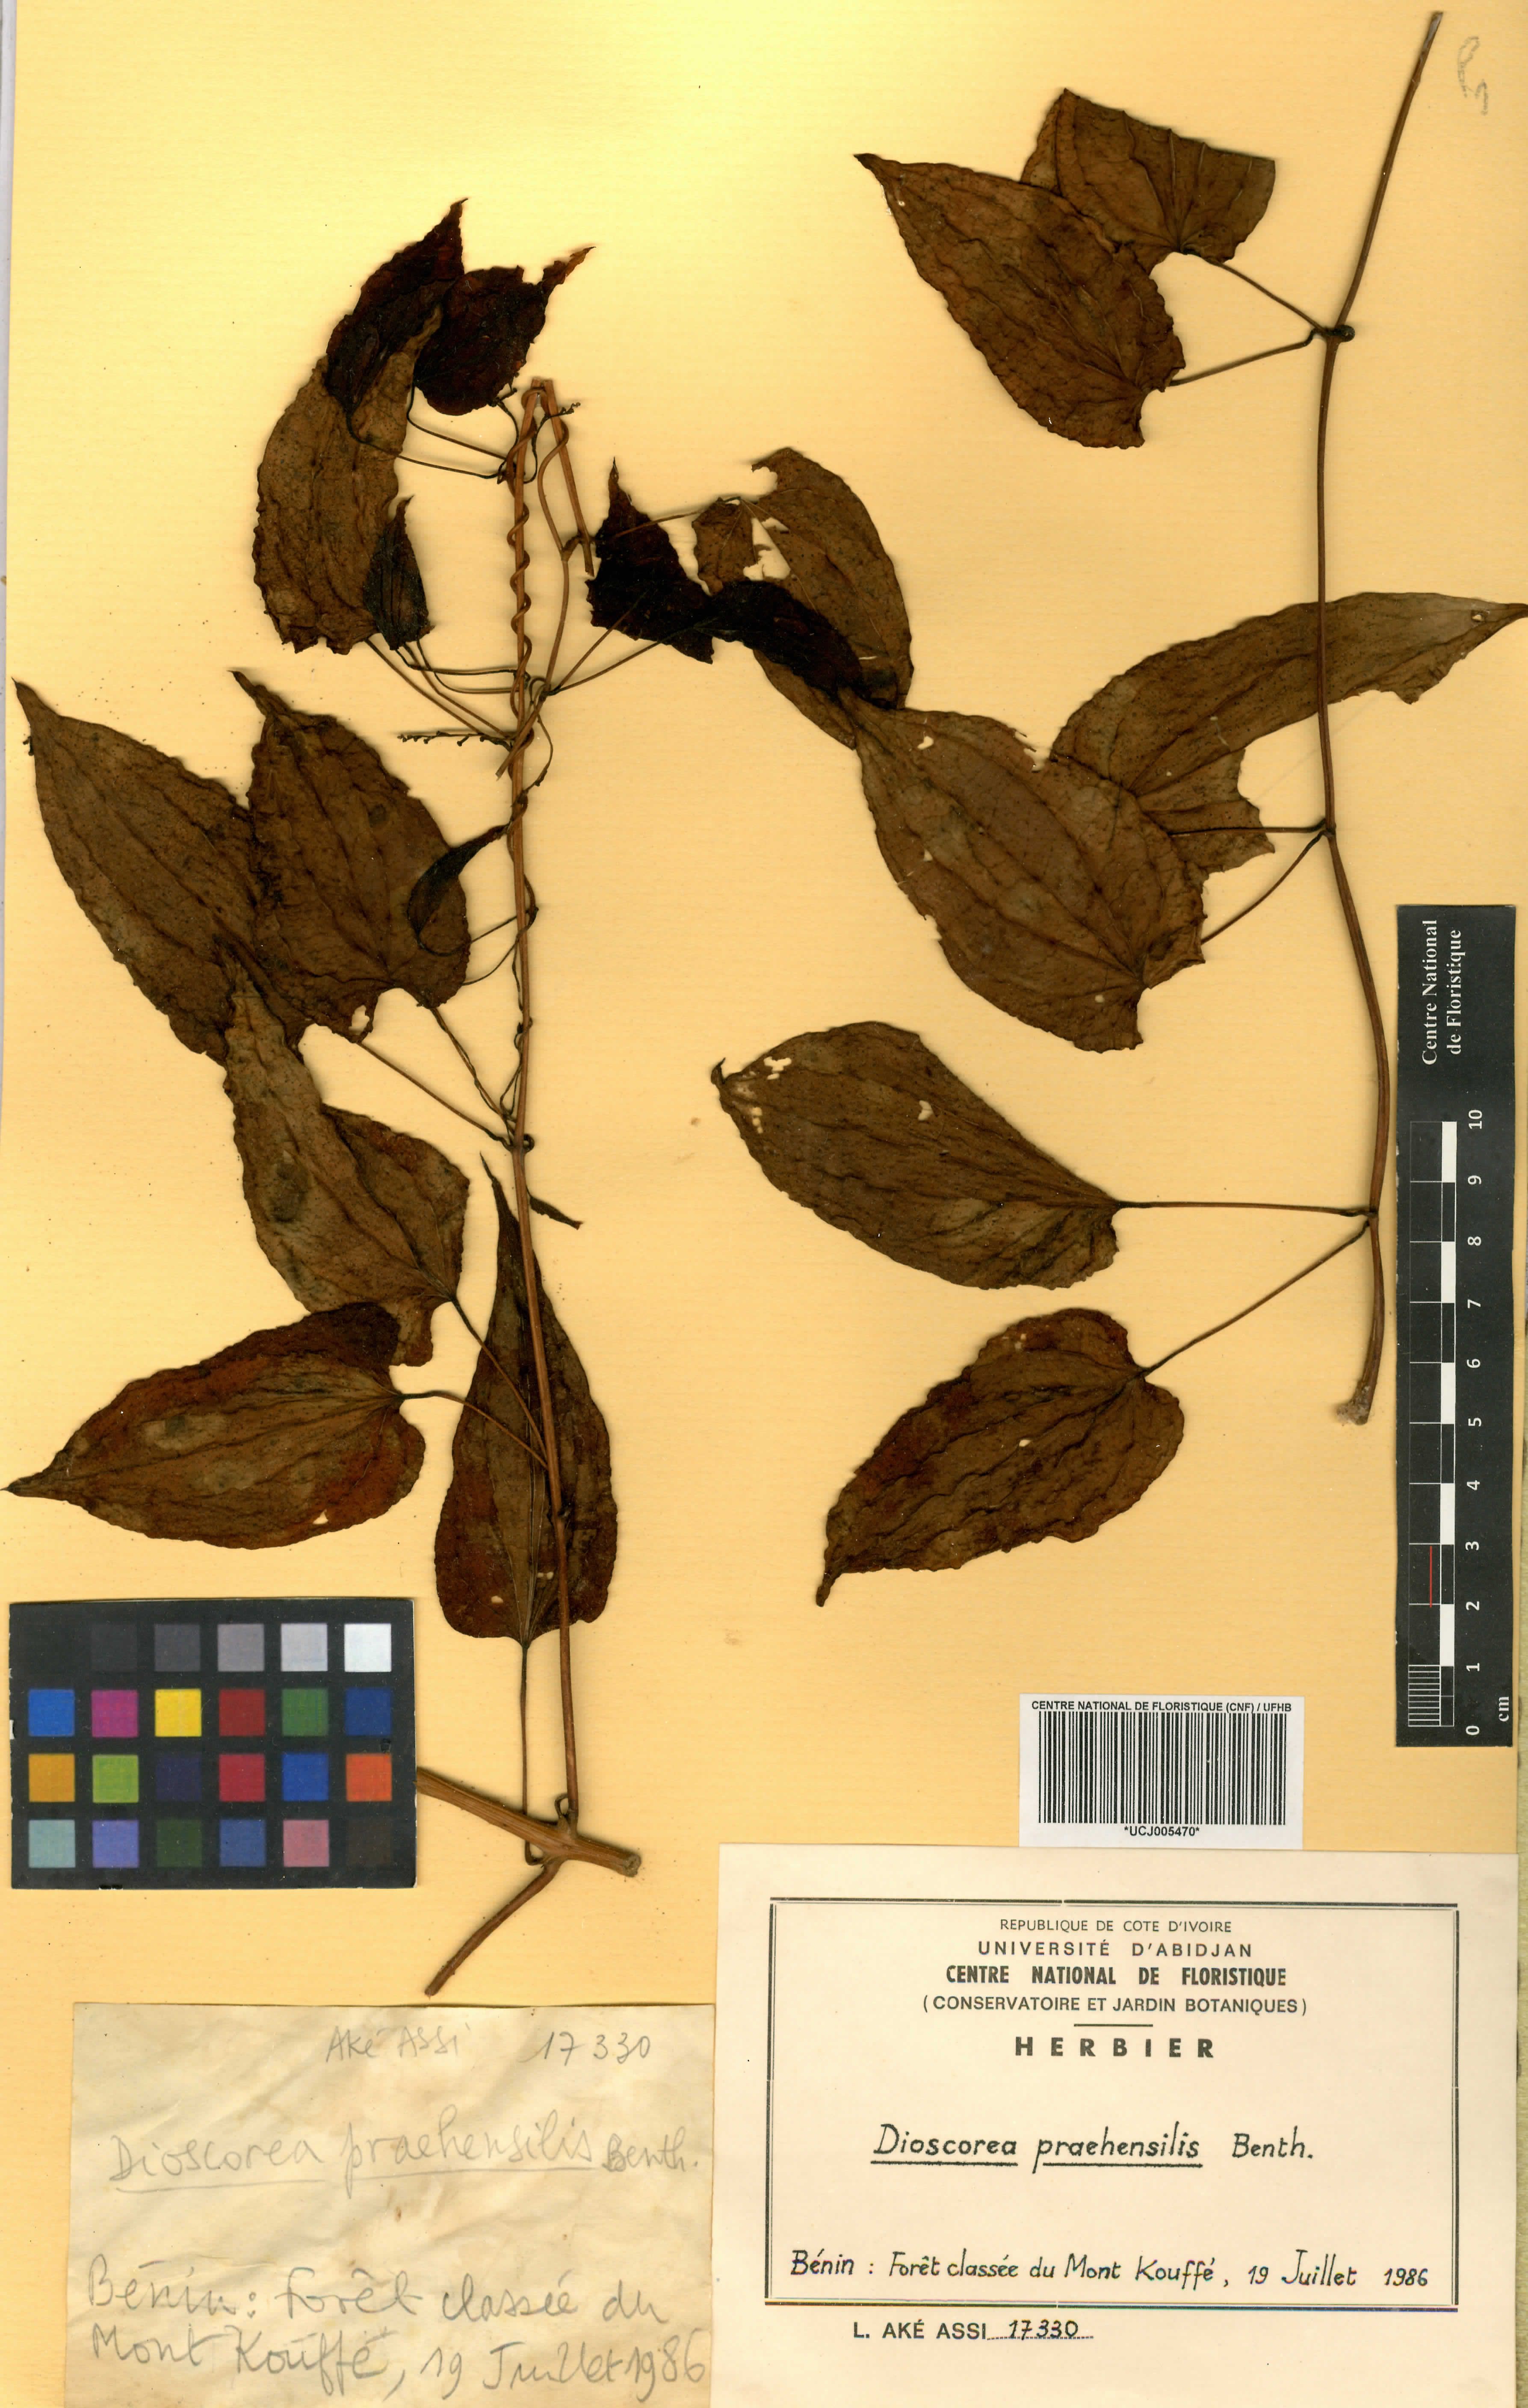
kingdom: Plantae
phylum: Tracheophyta
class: Liliopsida
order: Dioscoreales
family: Dioscoreaceae
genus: Dioscorea
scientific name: Dioscorea praehensilis
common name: Bush yam
